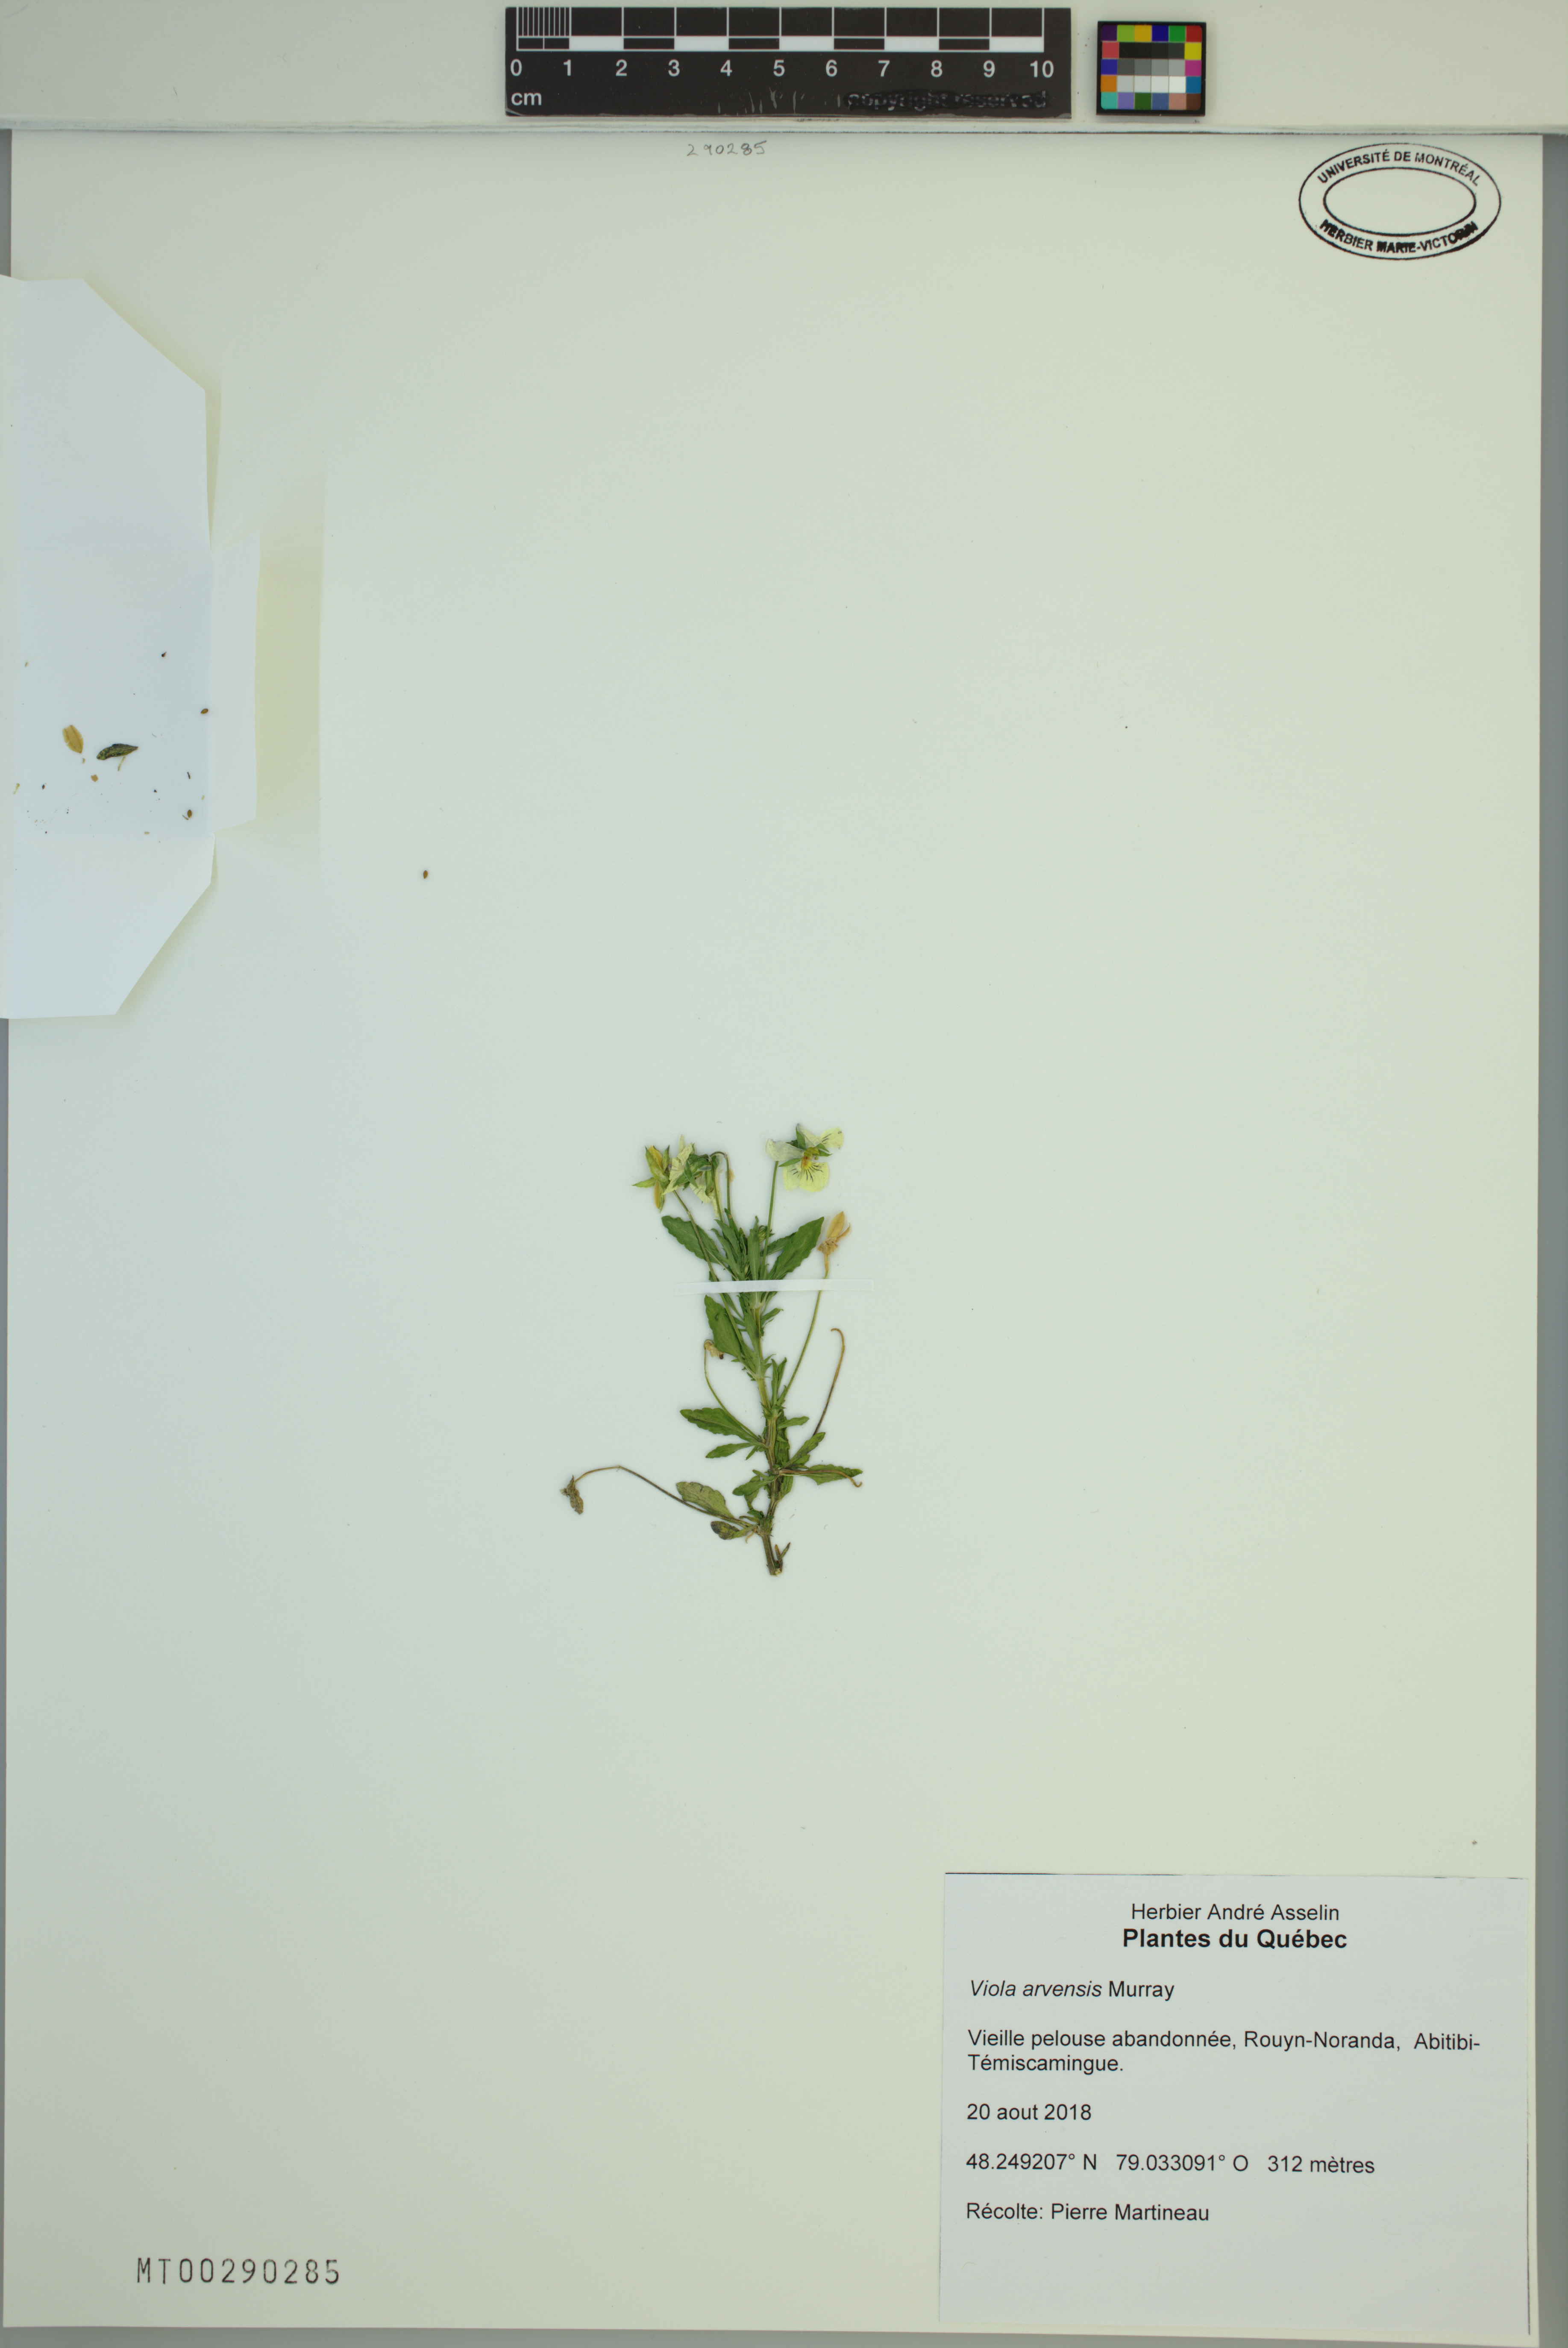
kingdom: Plantae
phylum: Tracheophyta
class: Magnoliopsida
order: Malpighiales
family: Violaceae
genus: Viola
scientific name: Viola arvensis
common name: Field pansy
